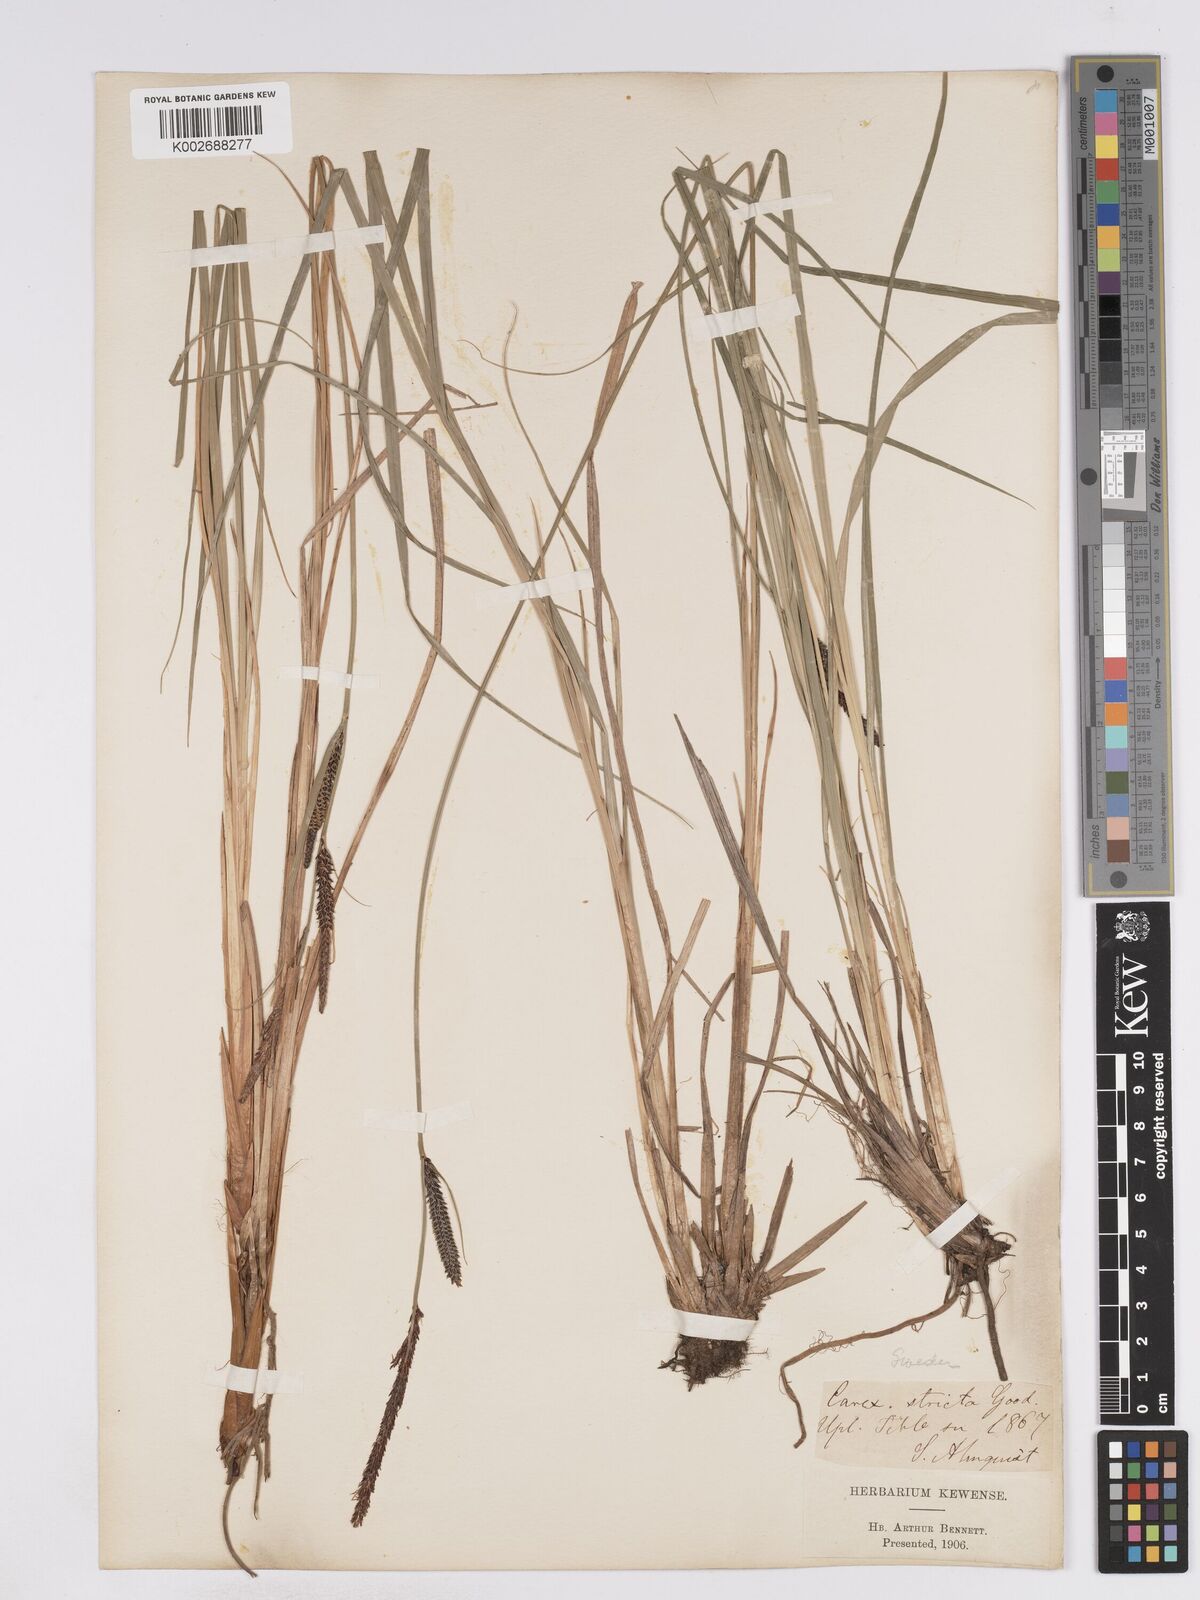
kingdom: Plantae
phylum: Tracheophyta
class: Liliopsida
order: Poales
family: Cyperaceae
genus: Carex
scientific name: Carex elata
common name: Tufted sedge
